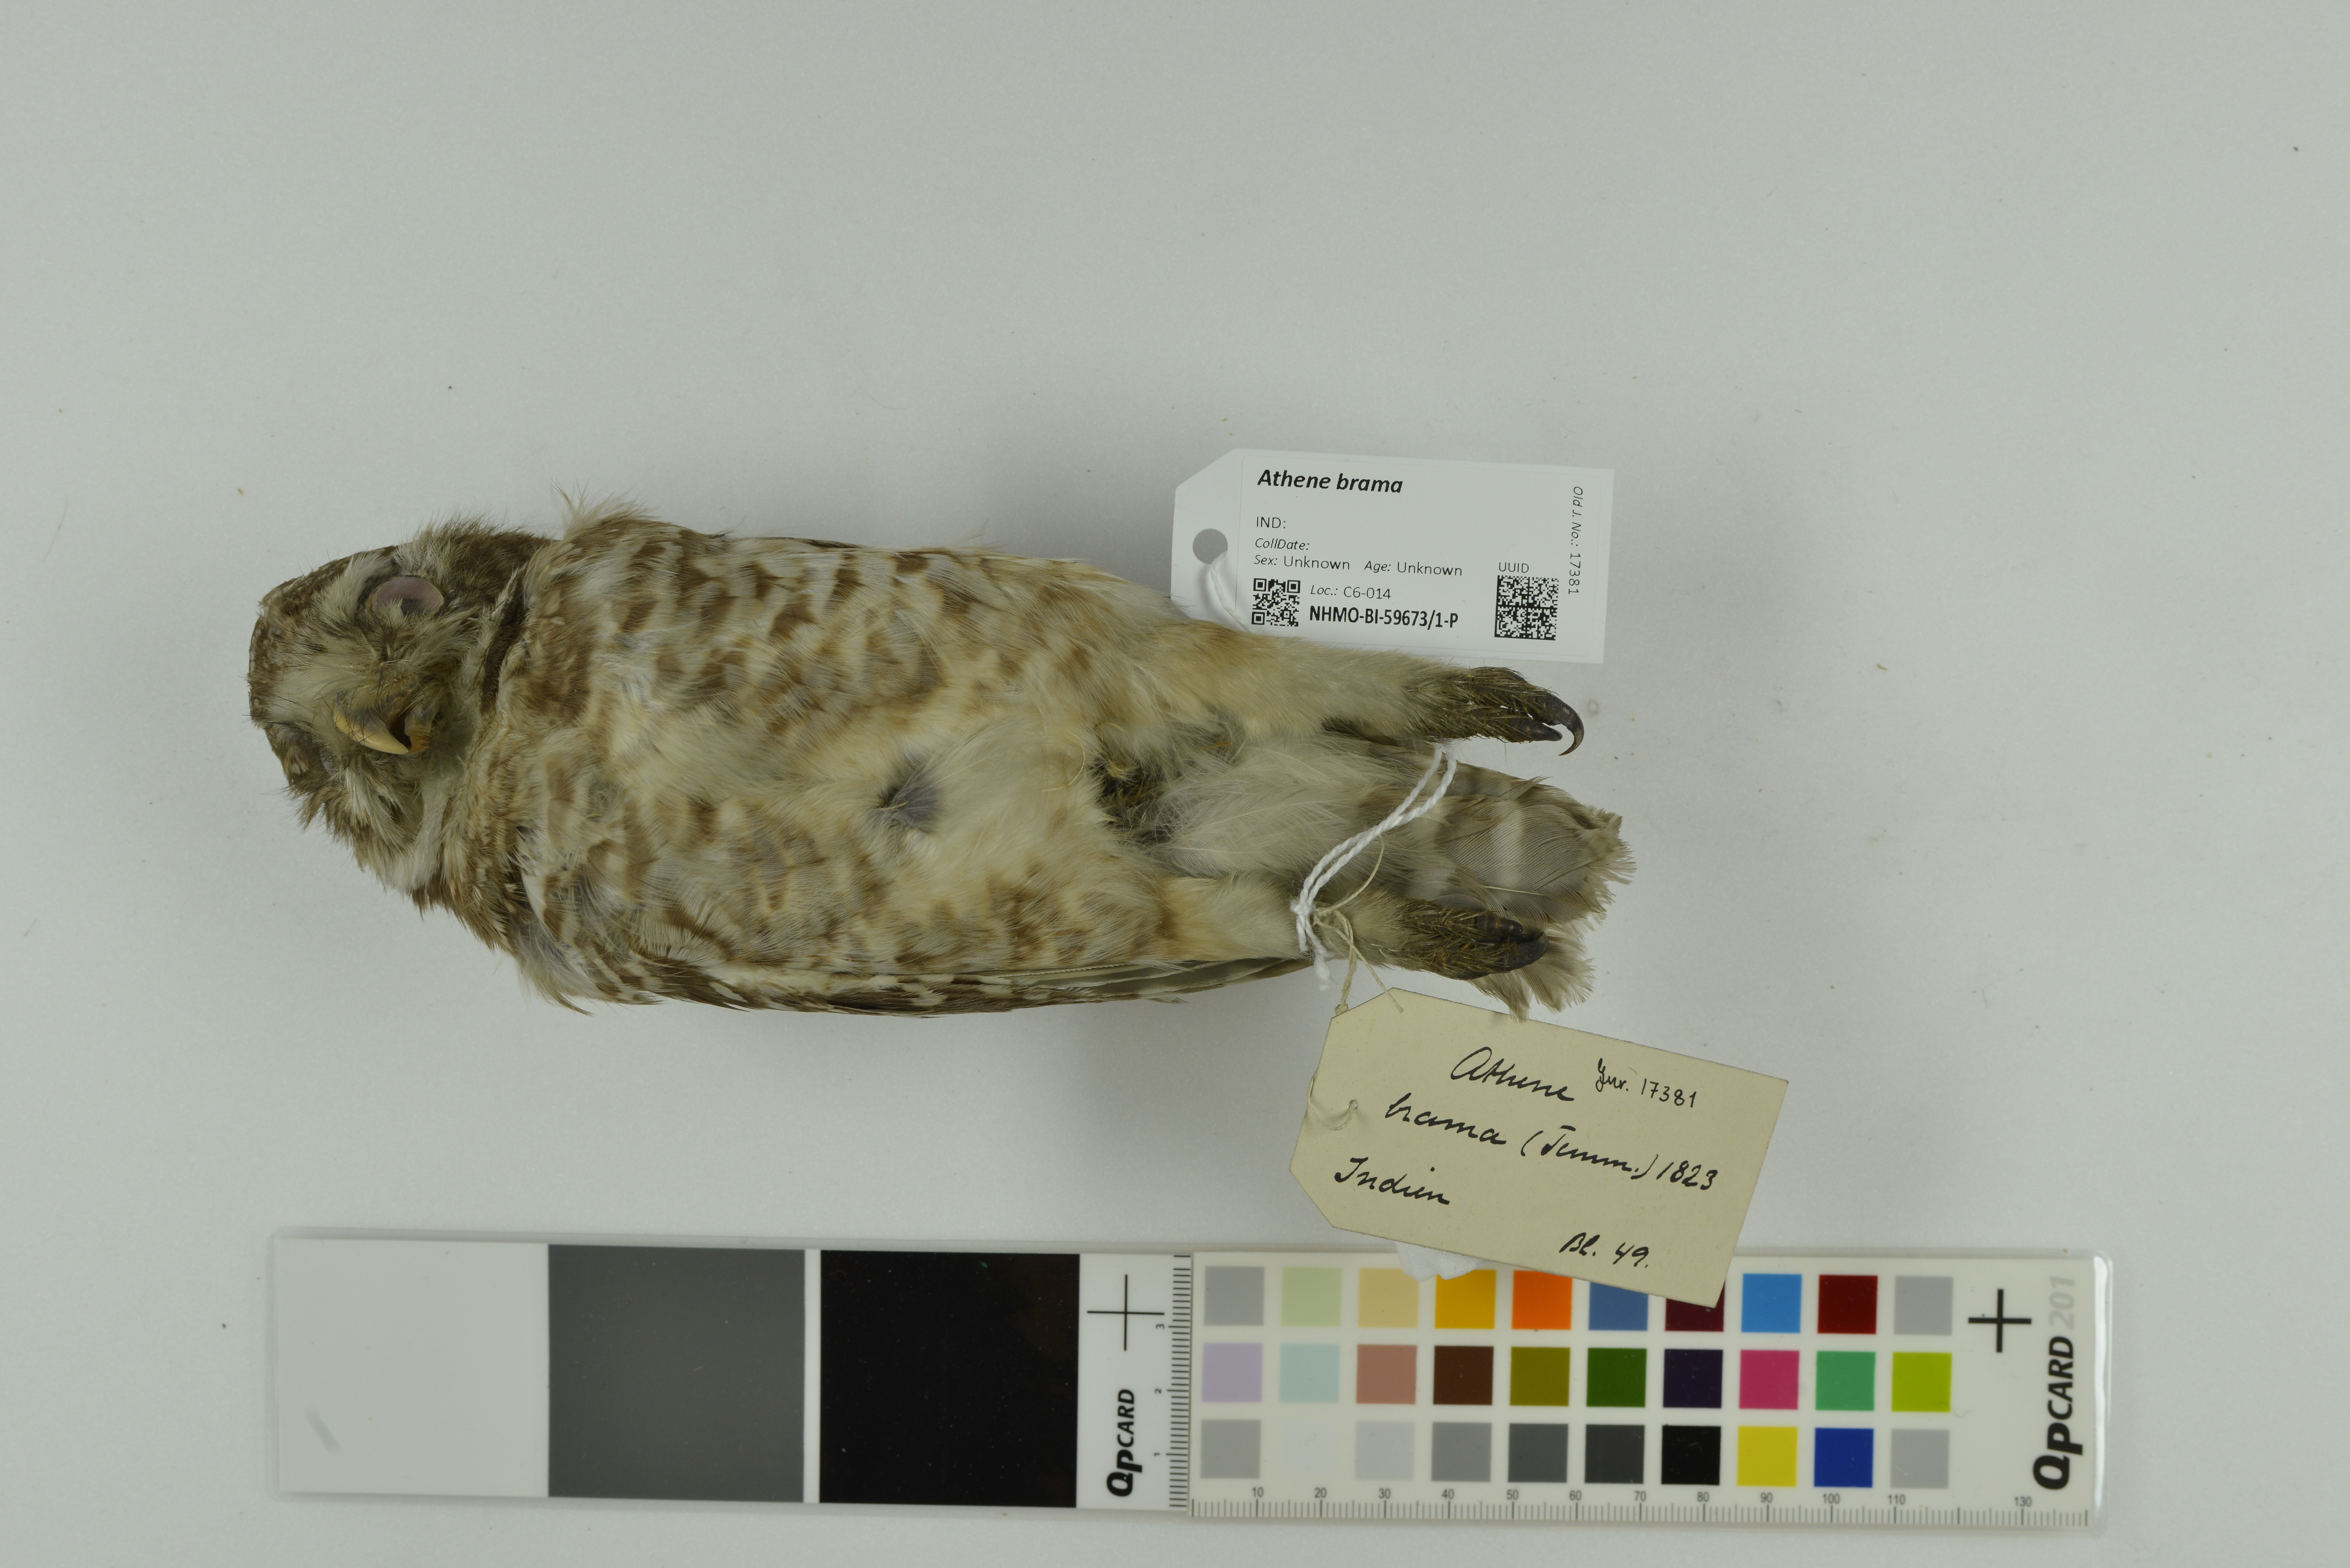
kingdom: Animalia
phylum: Chordata
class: Aves
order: Strigiformes
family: Strigidae
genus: Athene
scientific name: Athene brama
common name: Spotted owlet
